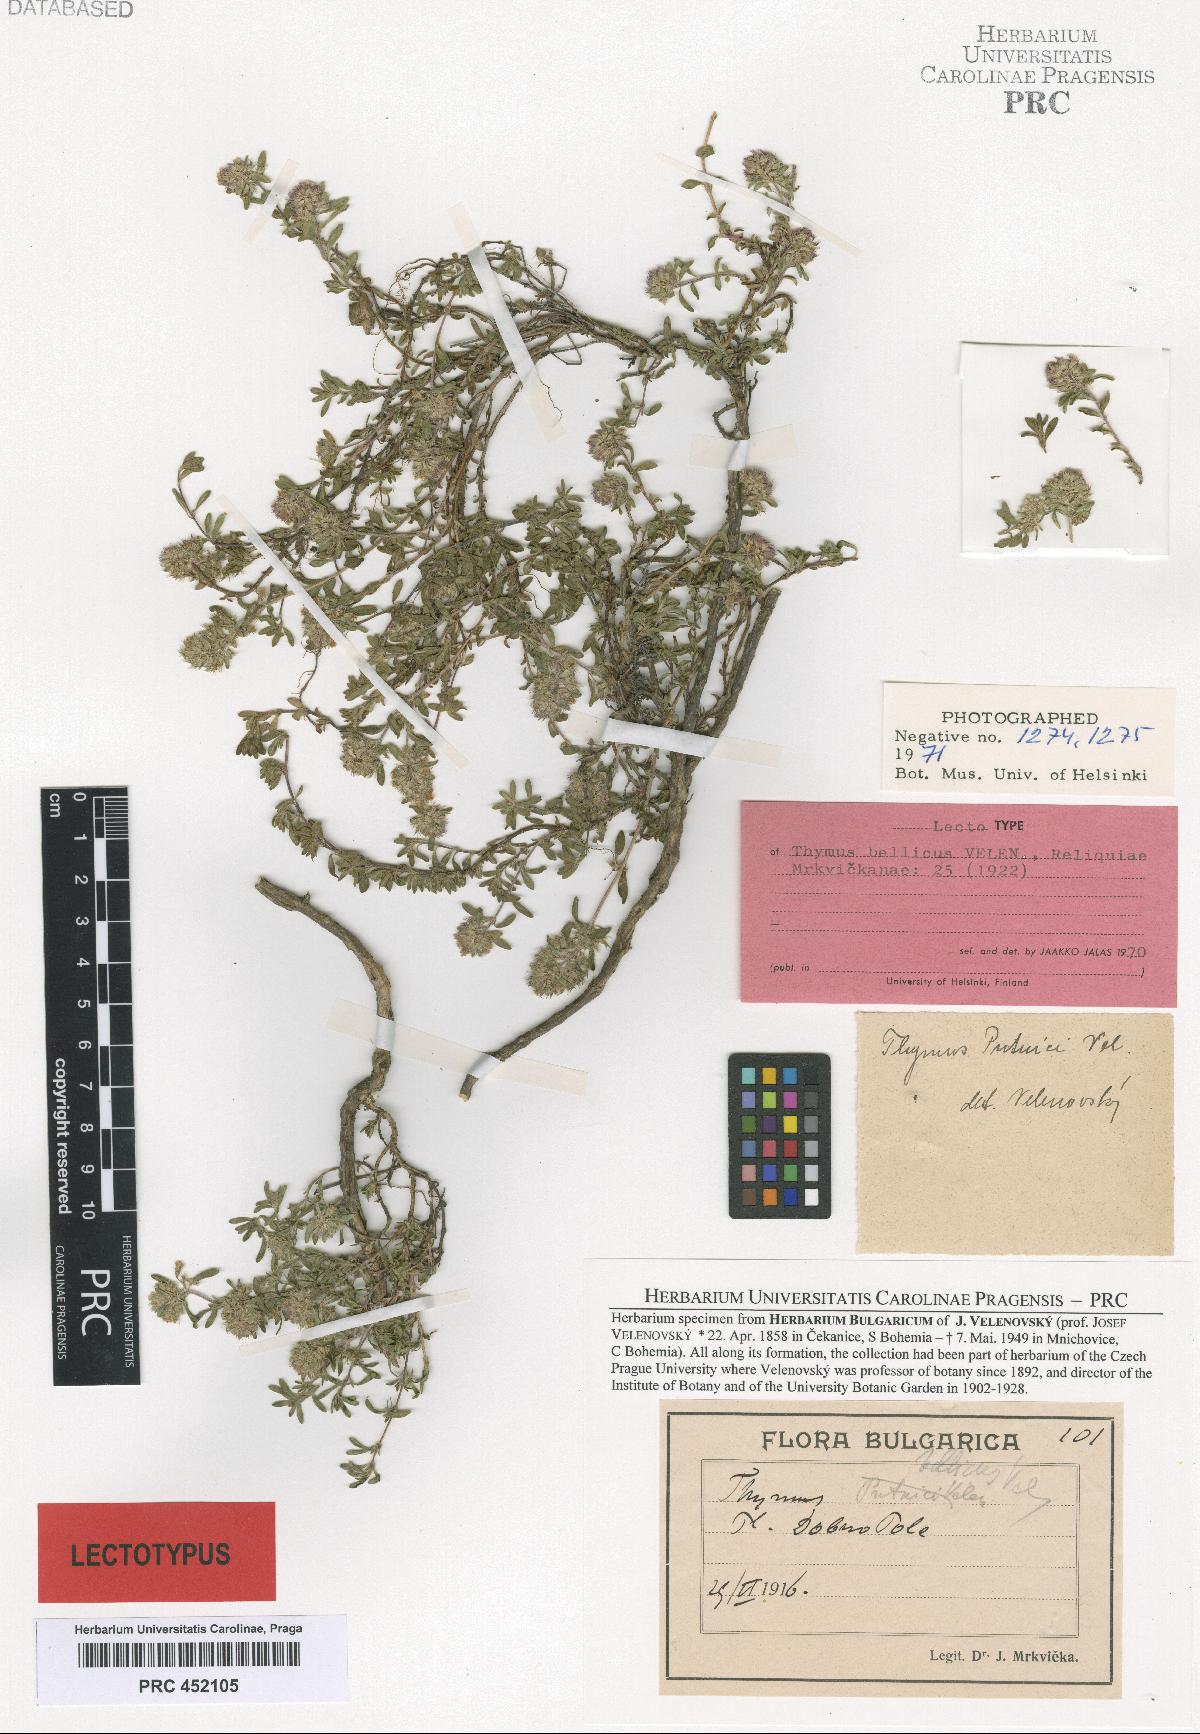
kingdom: Plantae
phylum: Tracheophyta
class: Magnoliopsida
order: Lamiales
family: Lamiaceae
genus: Thymus
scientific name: Thymus longicaulis
